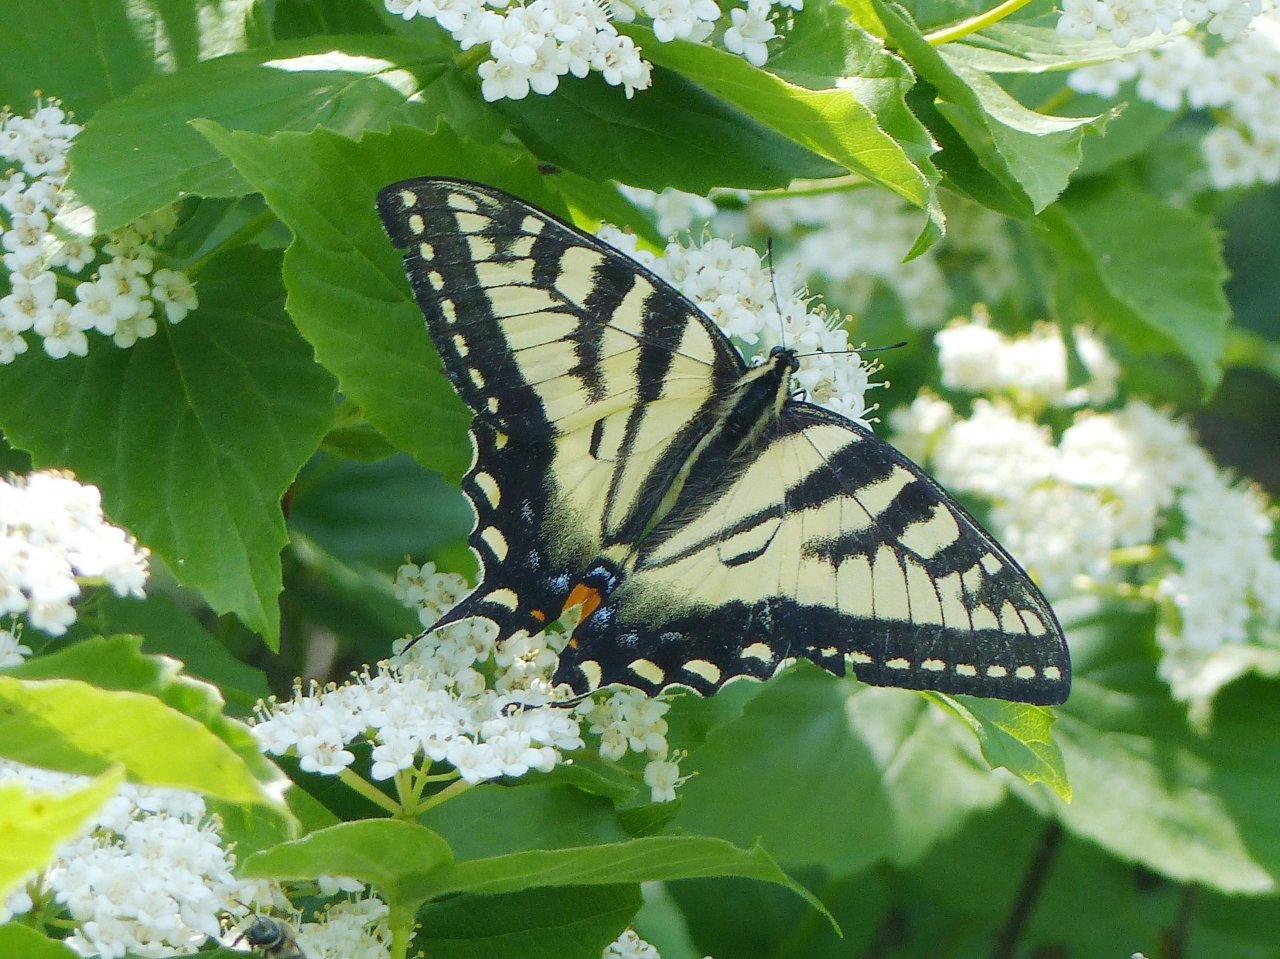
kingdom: Animalia
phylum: Arthropoda
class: Insecta
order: Lepidoptera
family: Papilionidae
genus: Pterourus
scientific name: Pterourus canadensis
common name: Canadian Tiger Swallowtail
